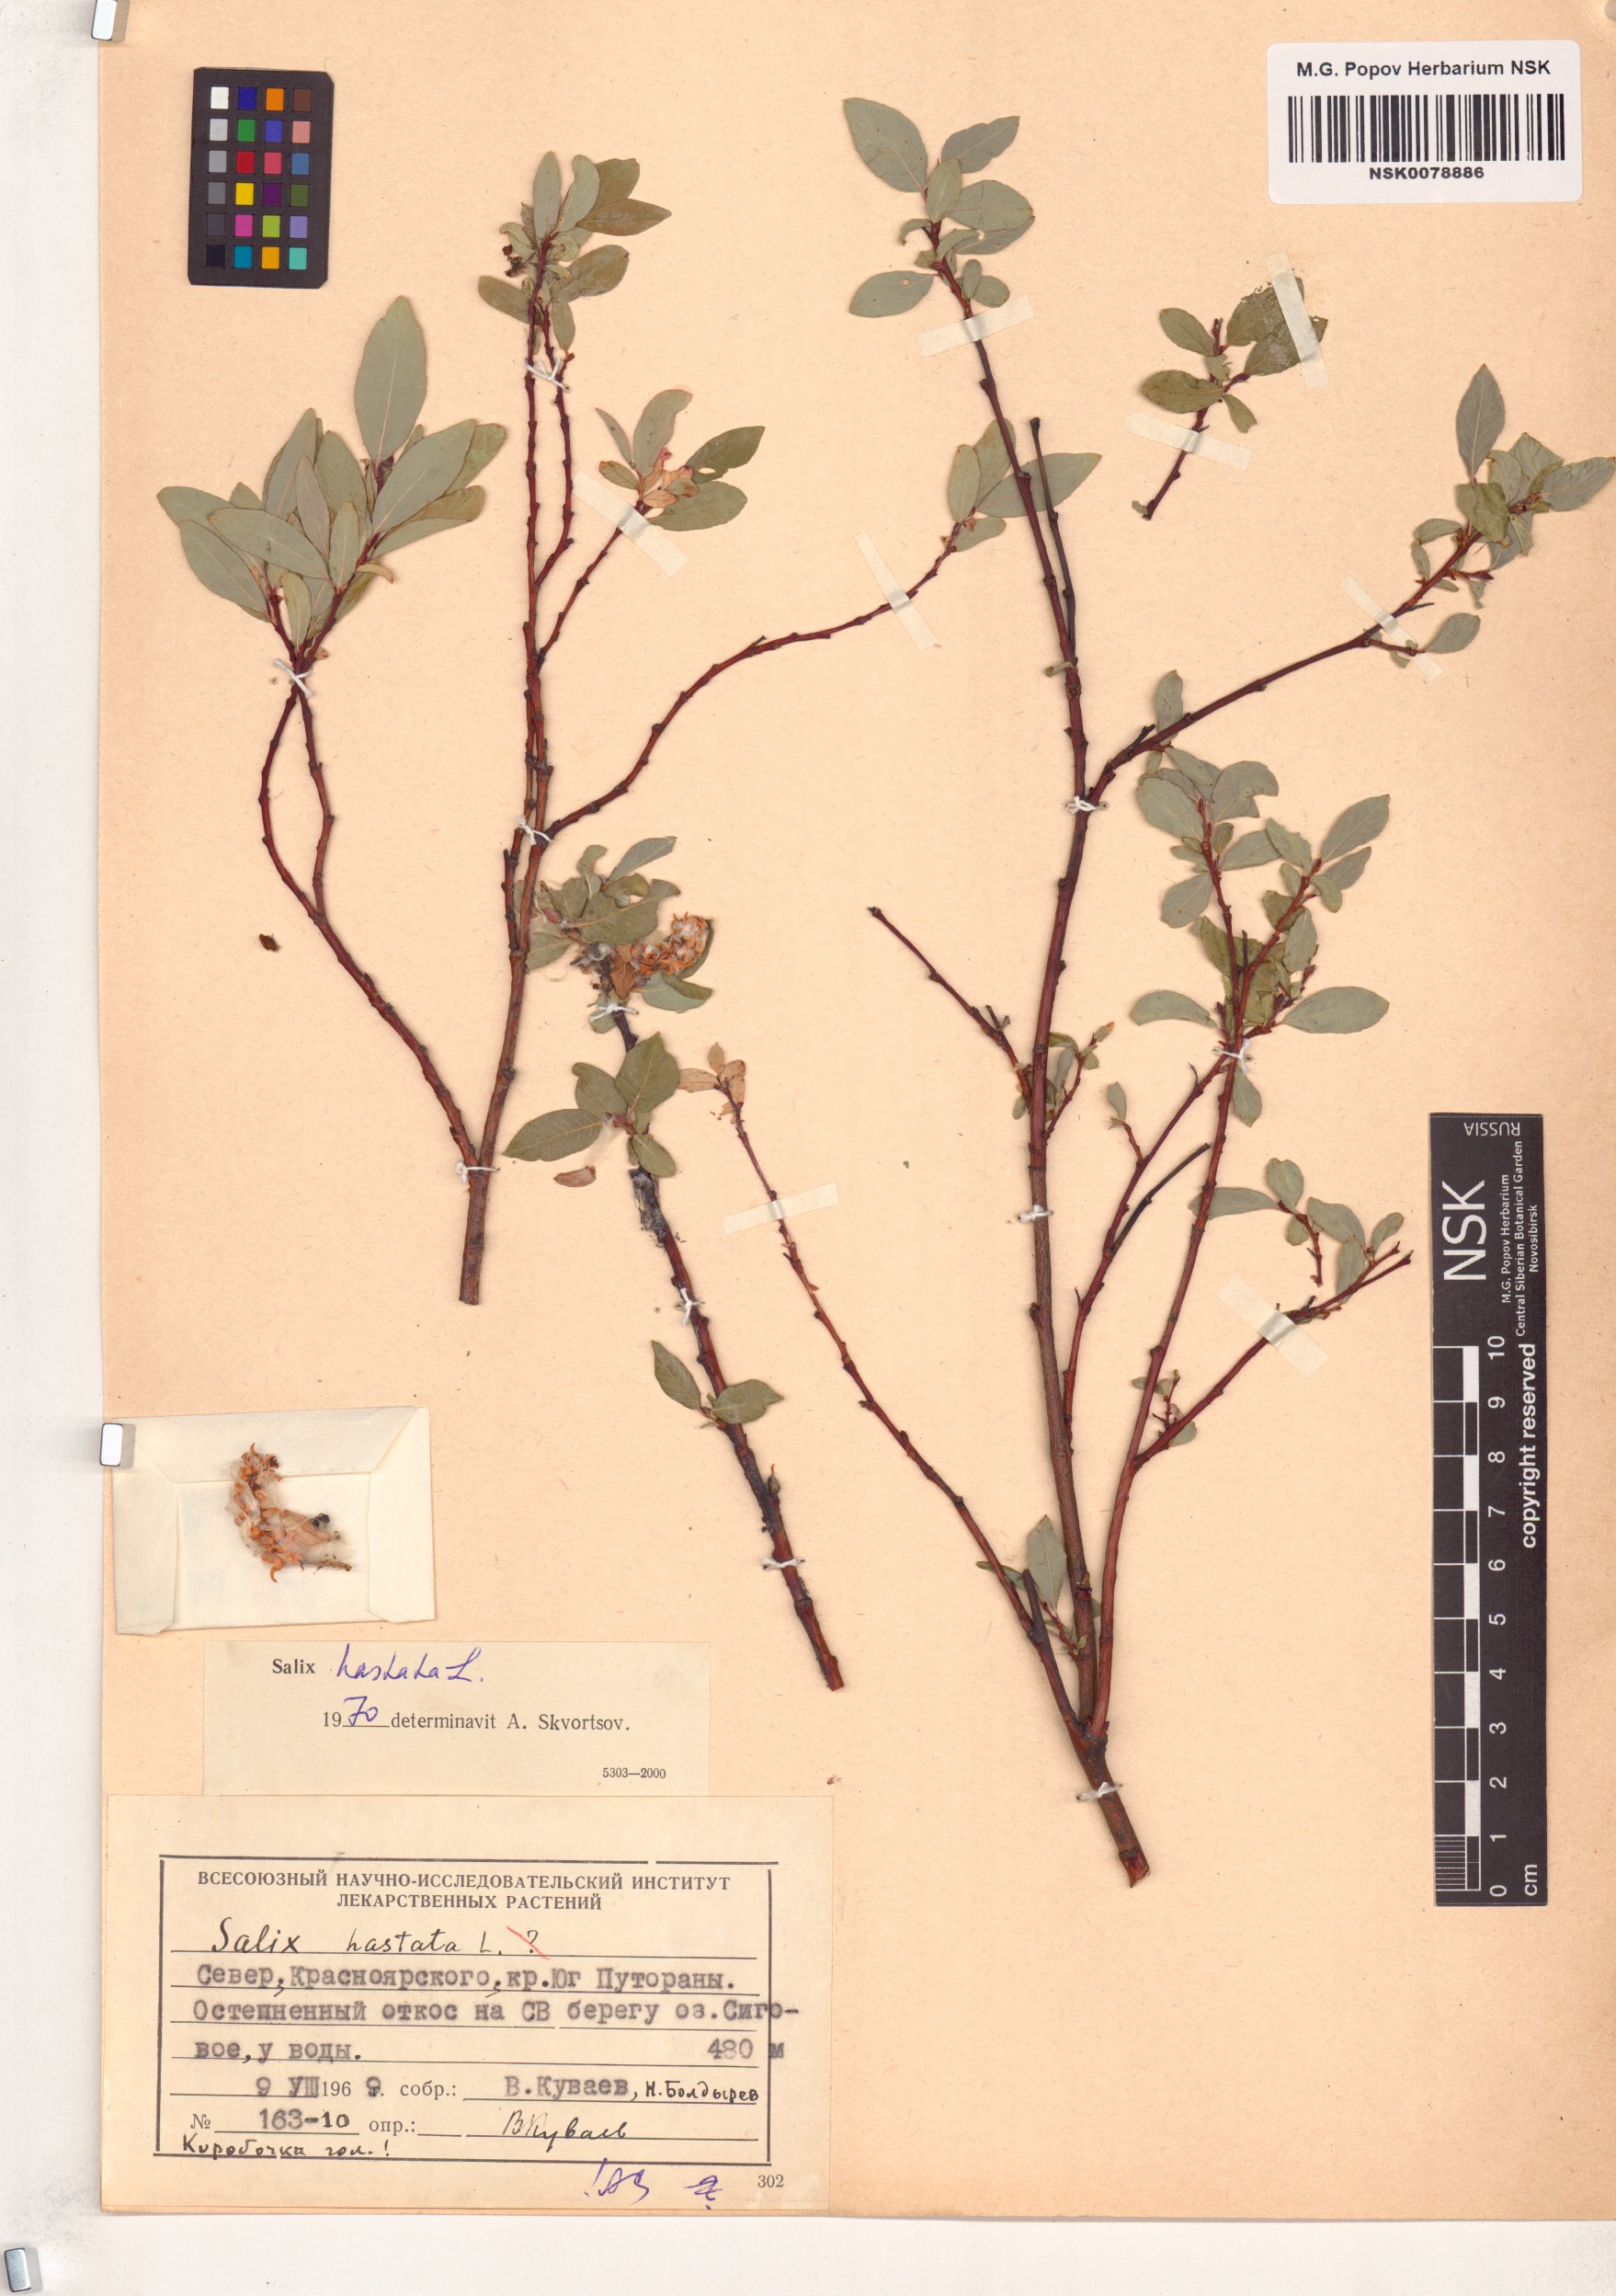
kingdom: Plantae
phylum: Tracheophyta
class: Magnoliopsida
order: Malpighiales
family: Salicaceae
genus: Salix
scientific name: Salix hastata
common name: Halberd willow
